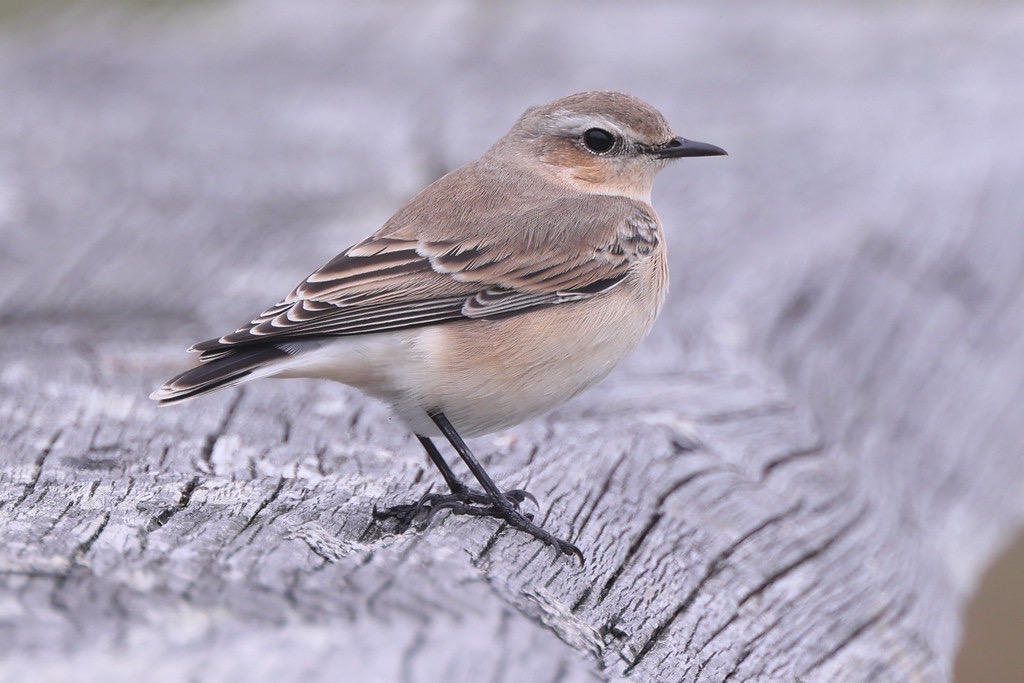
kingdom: Animalia
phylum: Chordata
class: Aves
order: Passeriformes
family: Muscicapidae
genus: Oenanthe
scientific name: Oenanthe oenanthe
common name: Stenpikker
